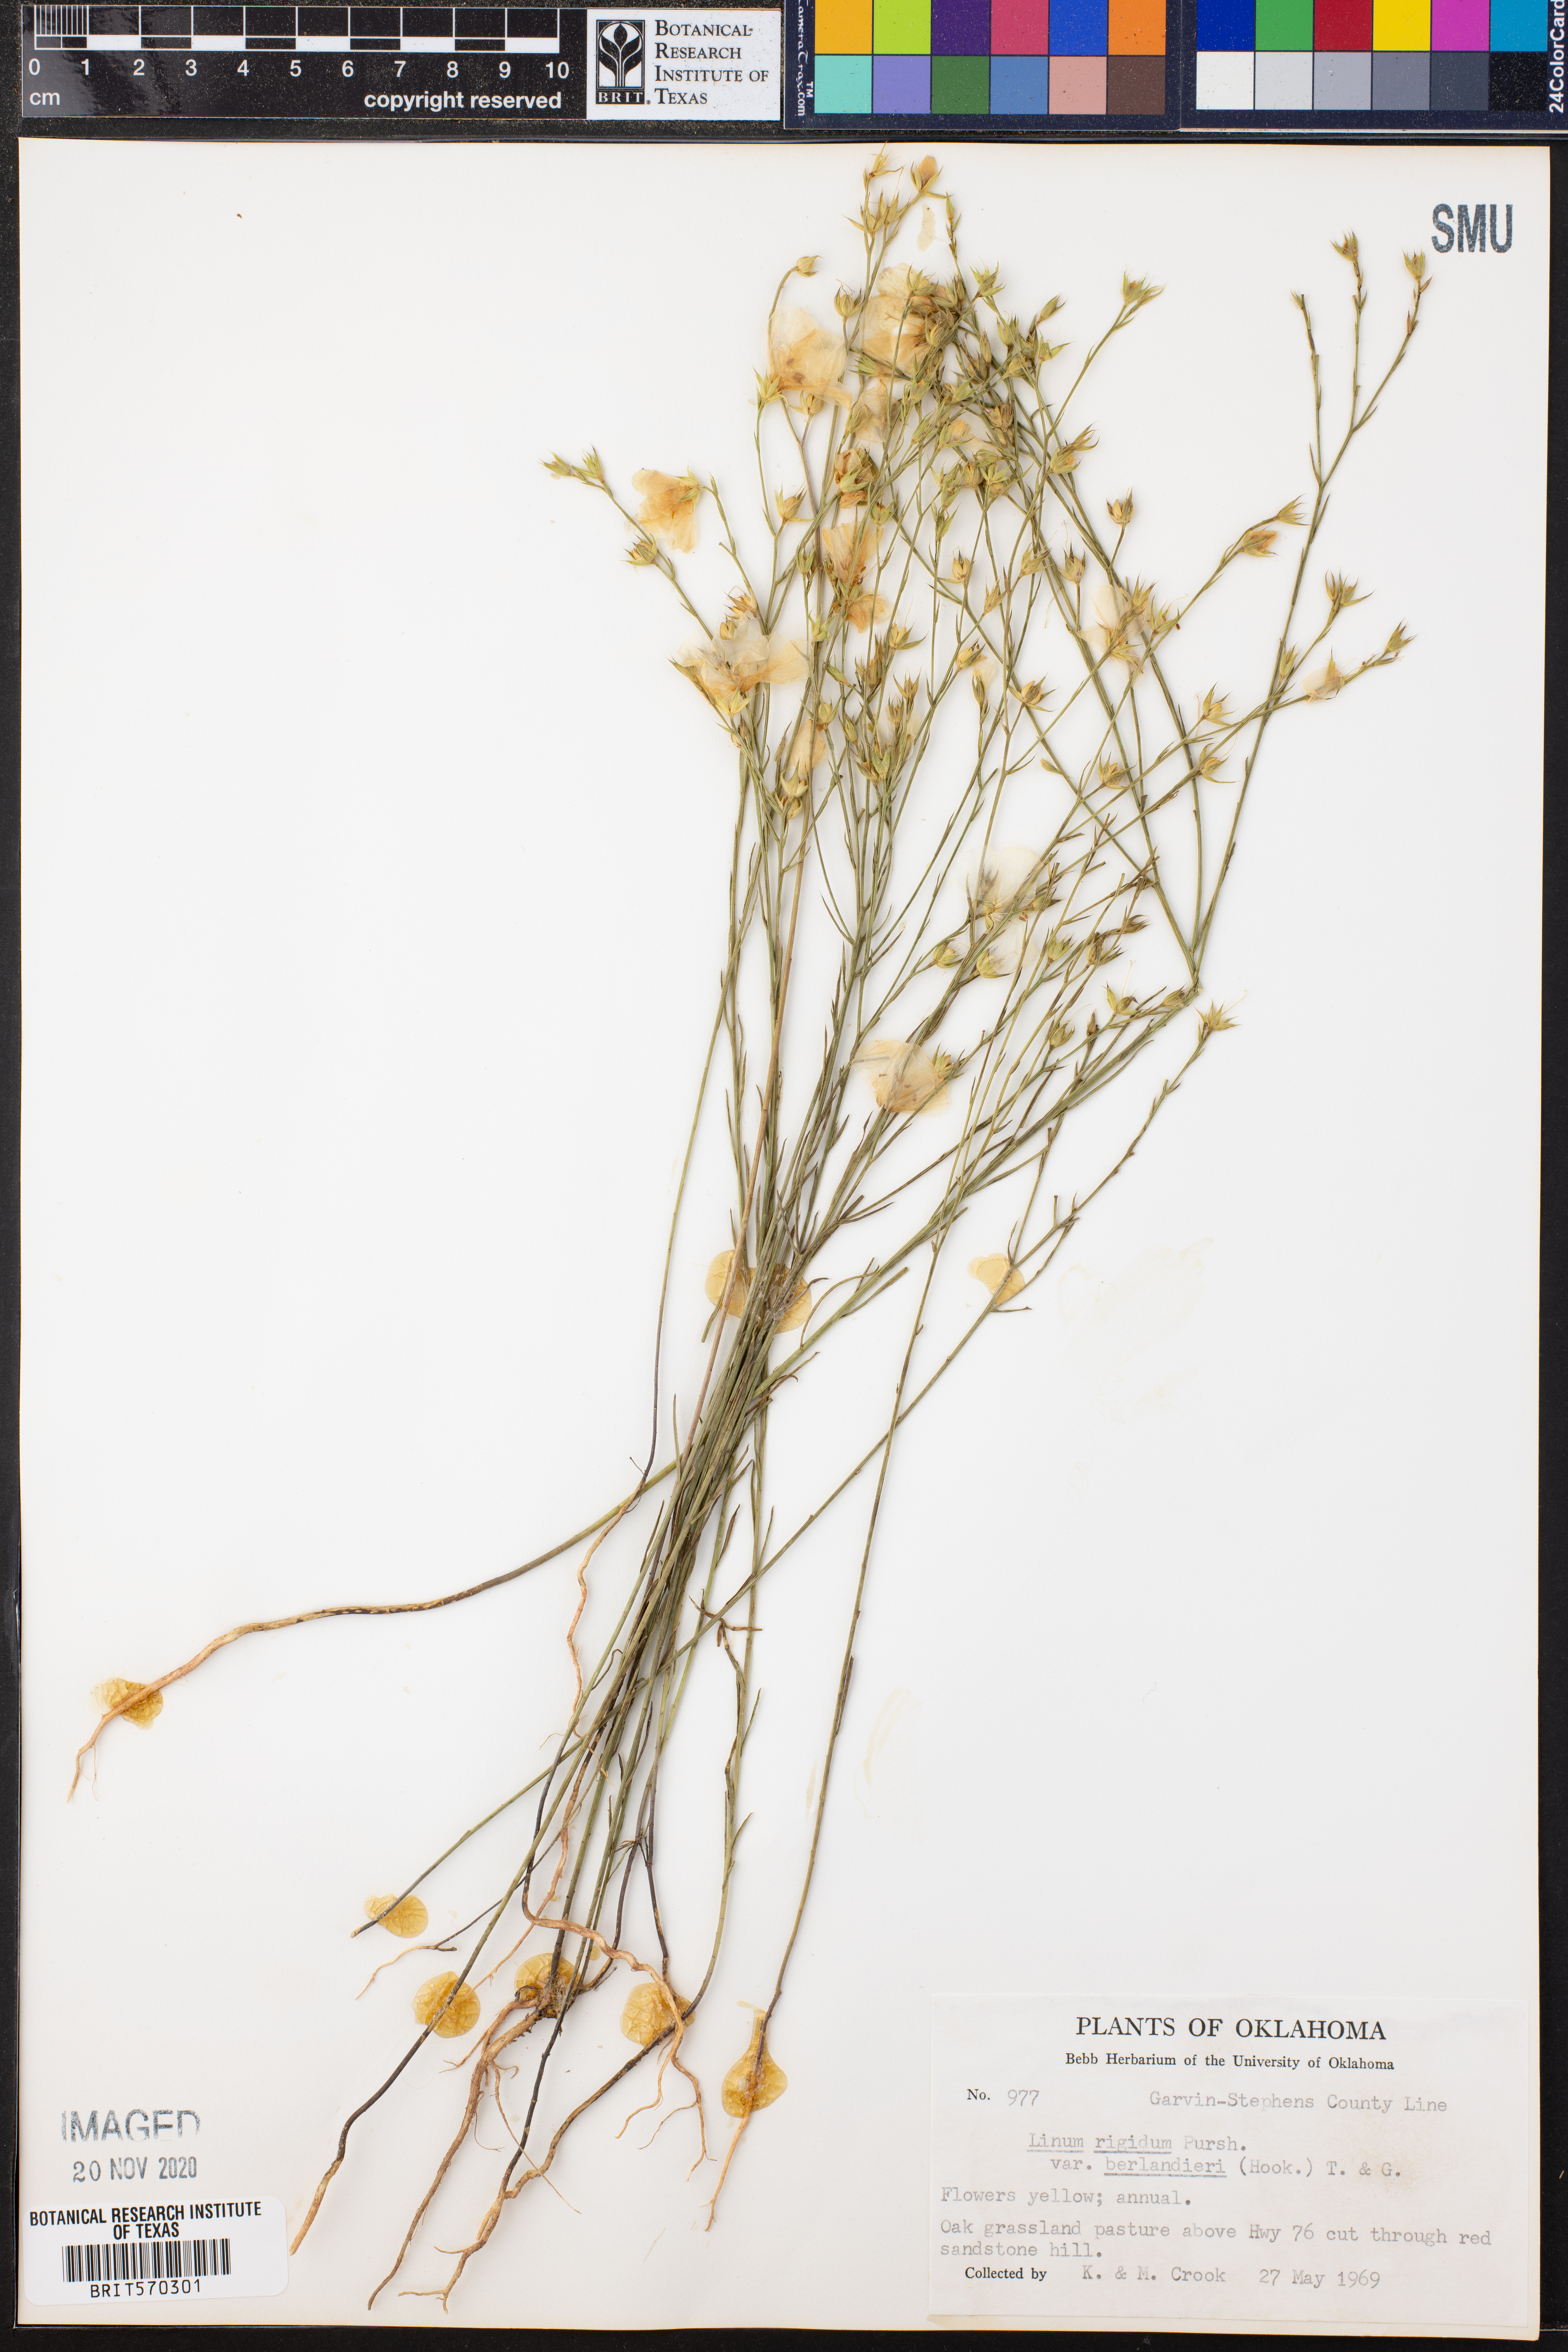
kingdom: Plantae
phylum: Tracheophyta
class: Magnoliopsida
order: Malpighiales
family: Linaceae
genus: Linum
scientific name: Linum berlandieri
